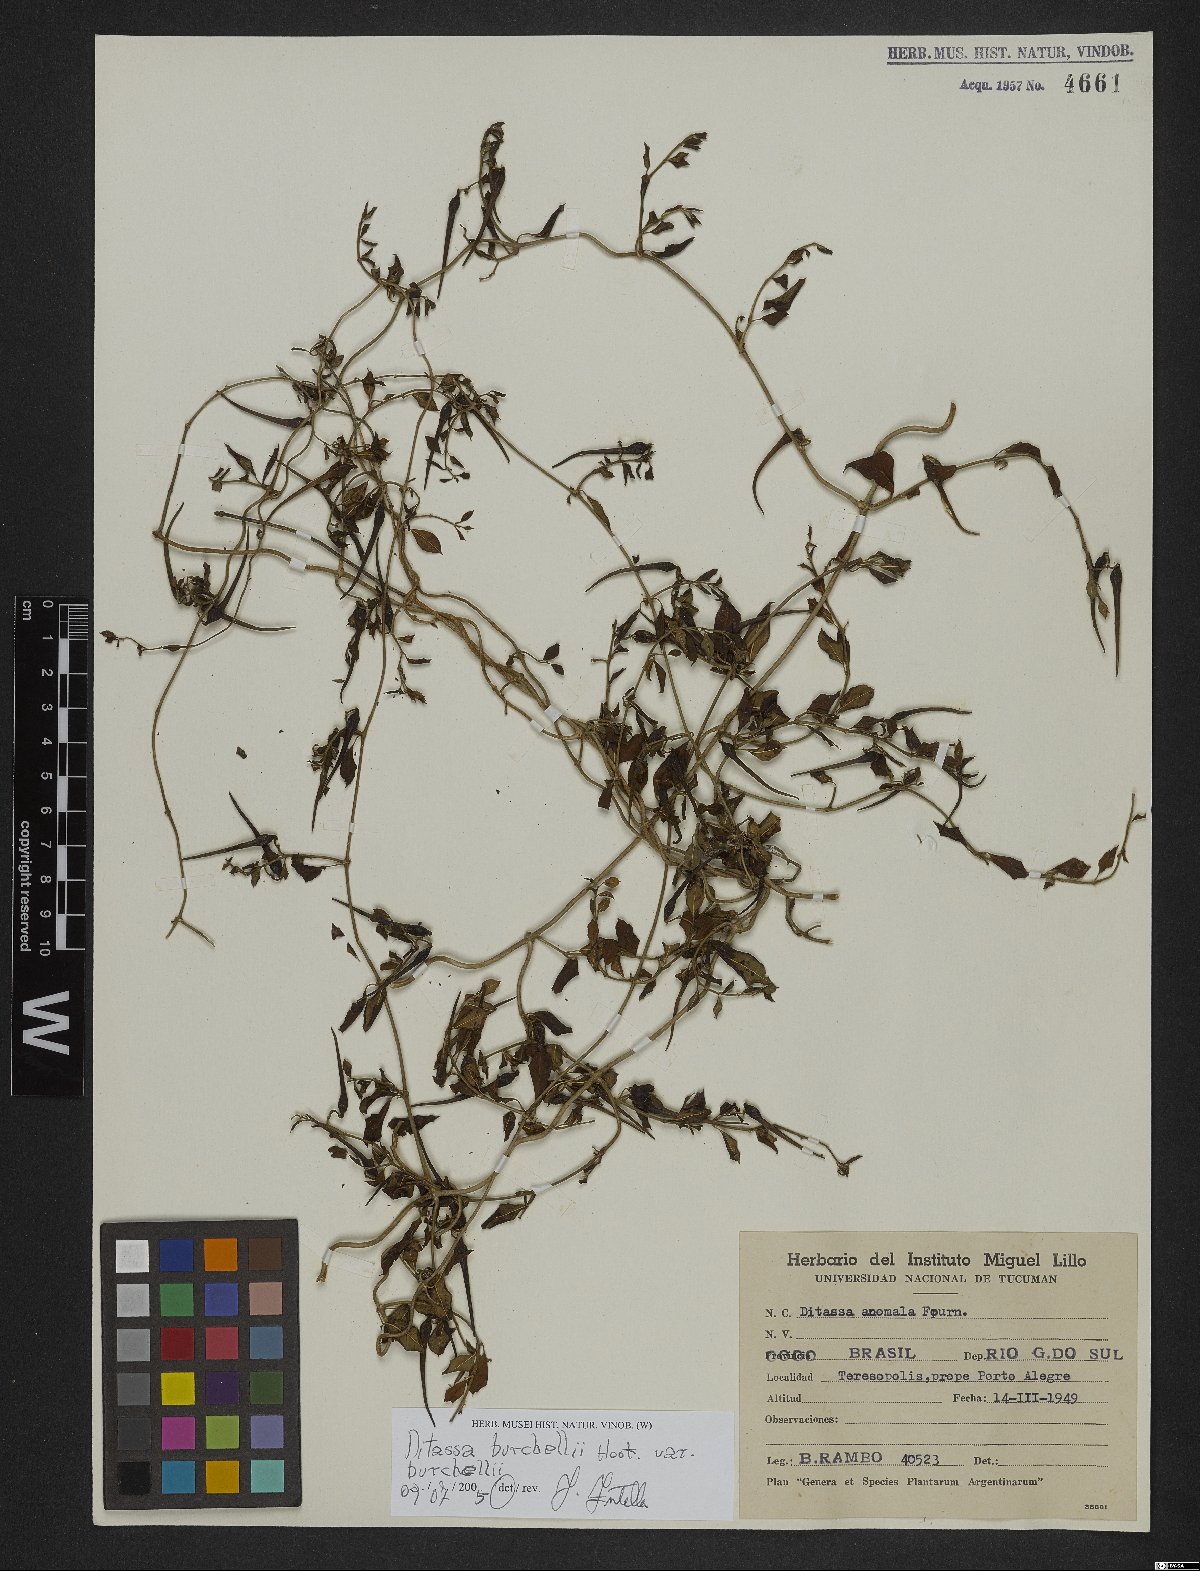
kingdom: Plantae
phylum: Tracheophyta
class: Magnoliopsida
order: Gentianales
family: Apocynaceae
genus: Metastelma
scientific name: Metastelma burchellii
